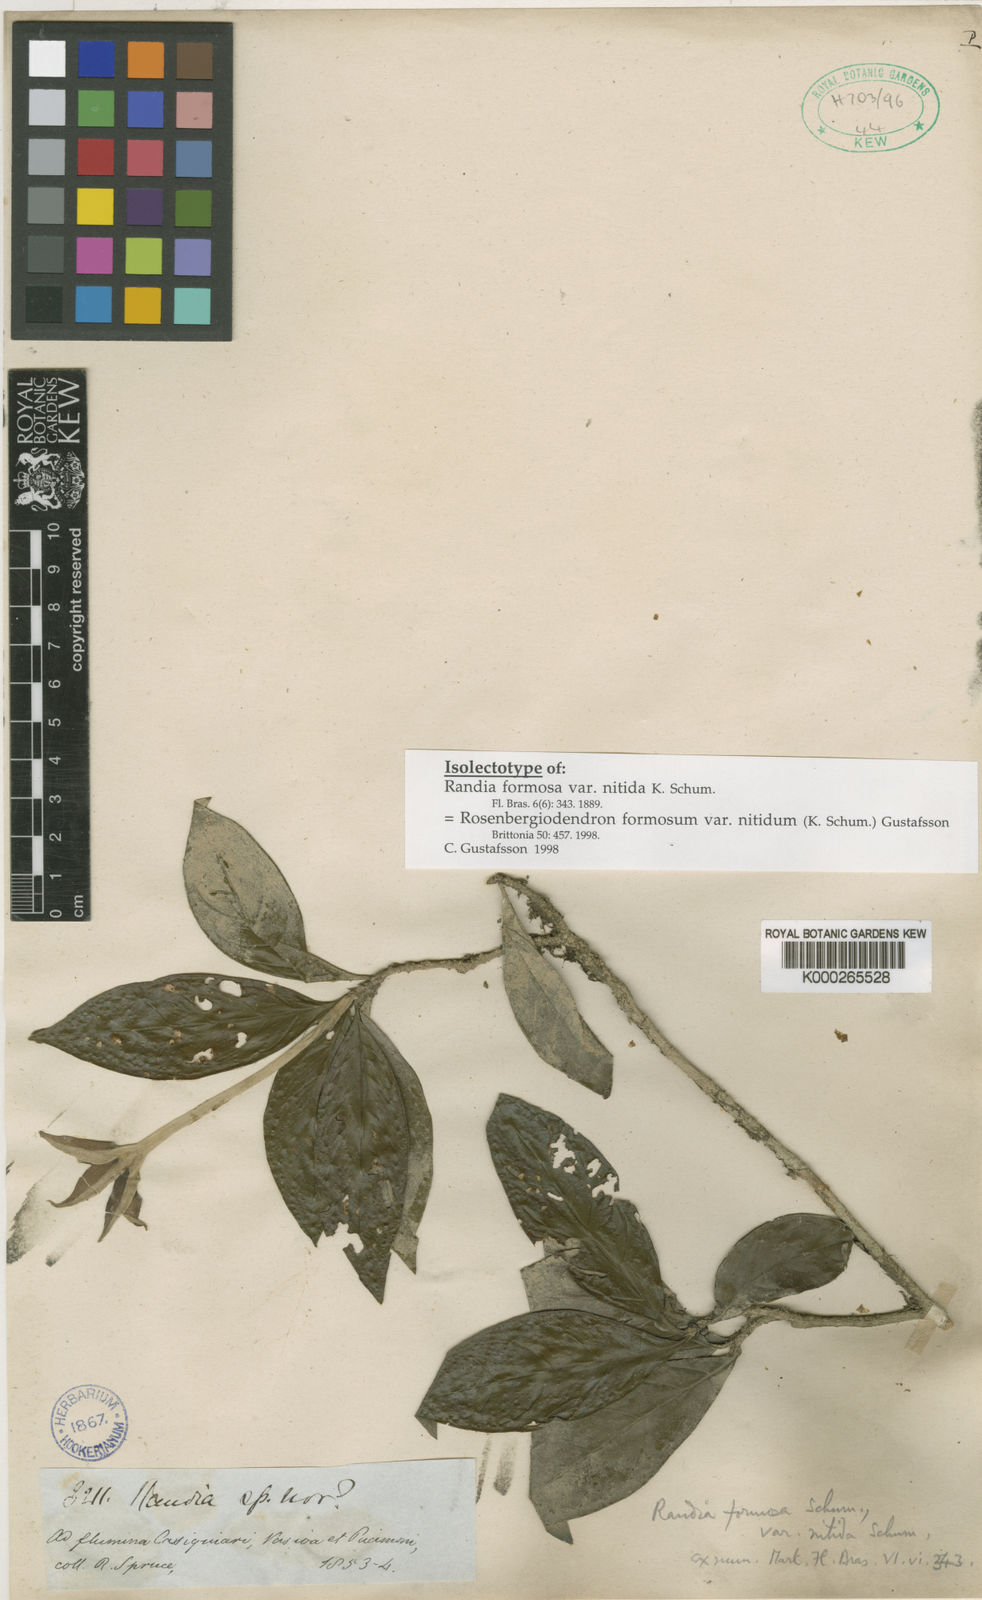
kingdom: Plantae
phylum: Tracheophyta
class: Magnoliopsida
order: Gentianales
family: Rubiaceae
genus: Rosenbergiodendron
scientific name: Rosenbergiodendron formosum
